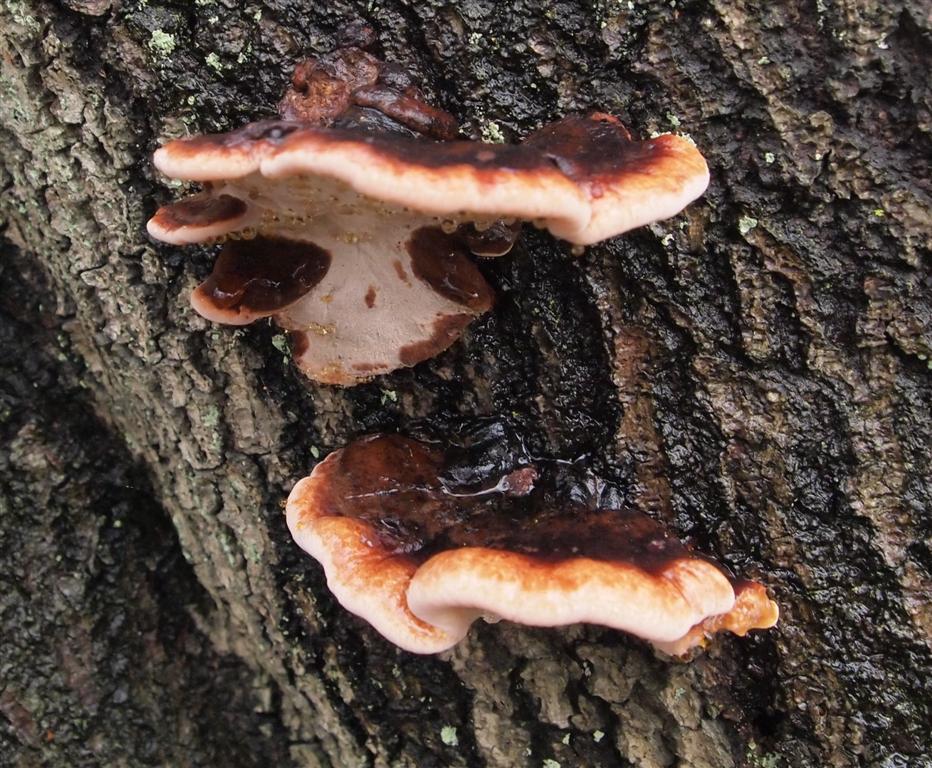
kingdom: Fungi
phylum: Basidiomycota
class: Agaricomycetes
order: Polyporales
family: Ischnodermataceae
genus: Ischnoderma
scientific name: Ischnoderma resinosum
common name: løv-tjæreporesvamp
